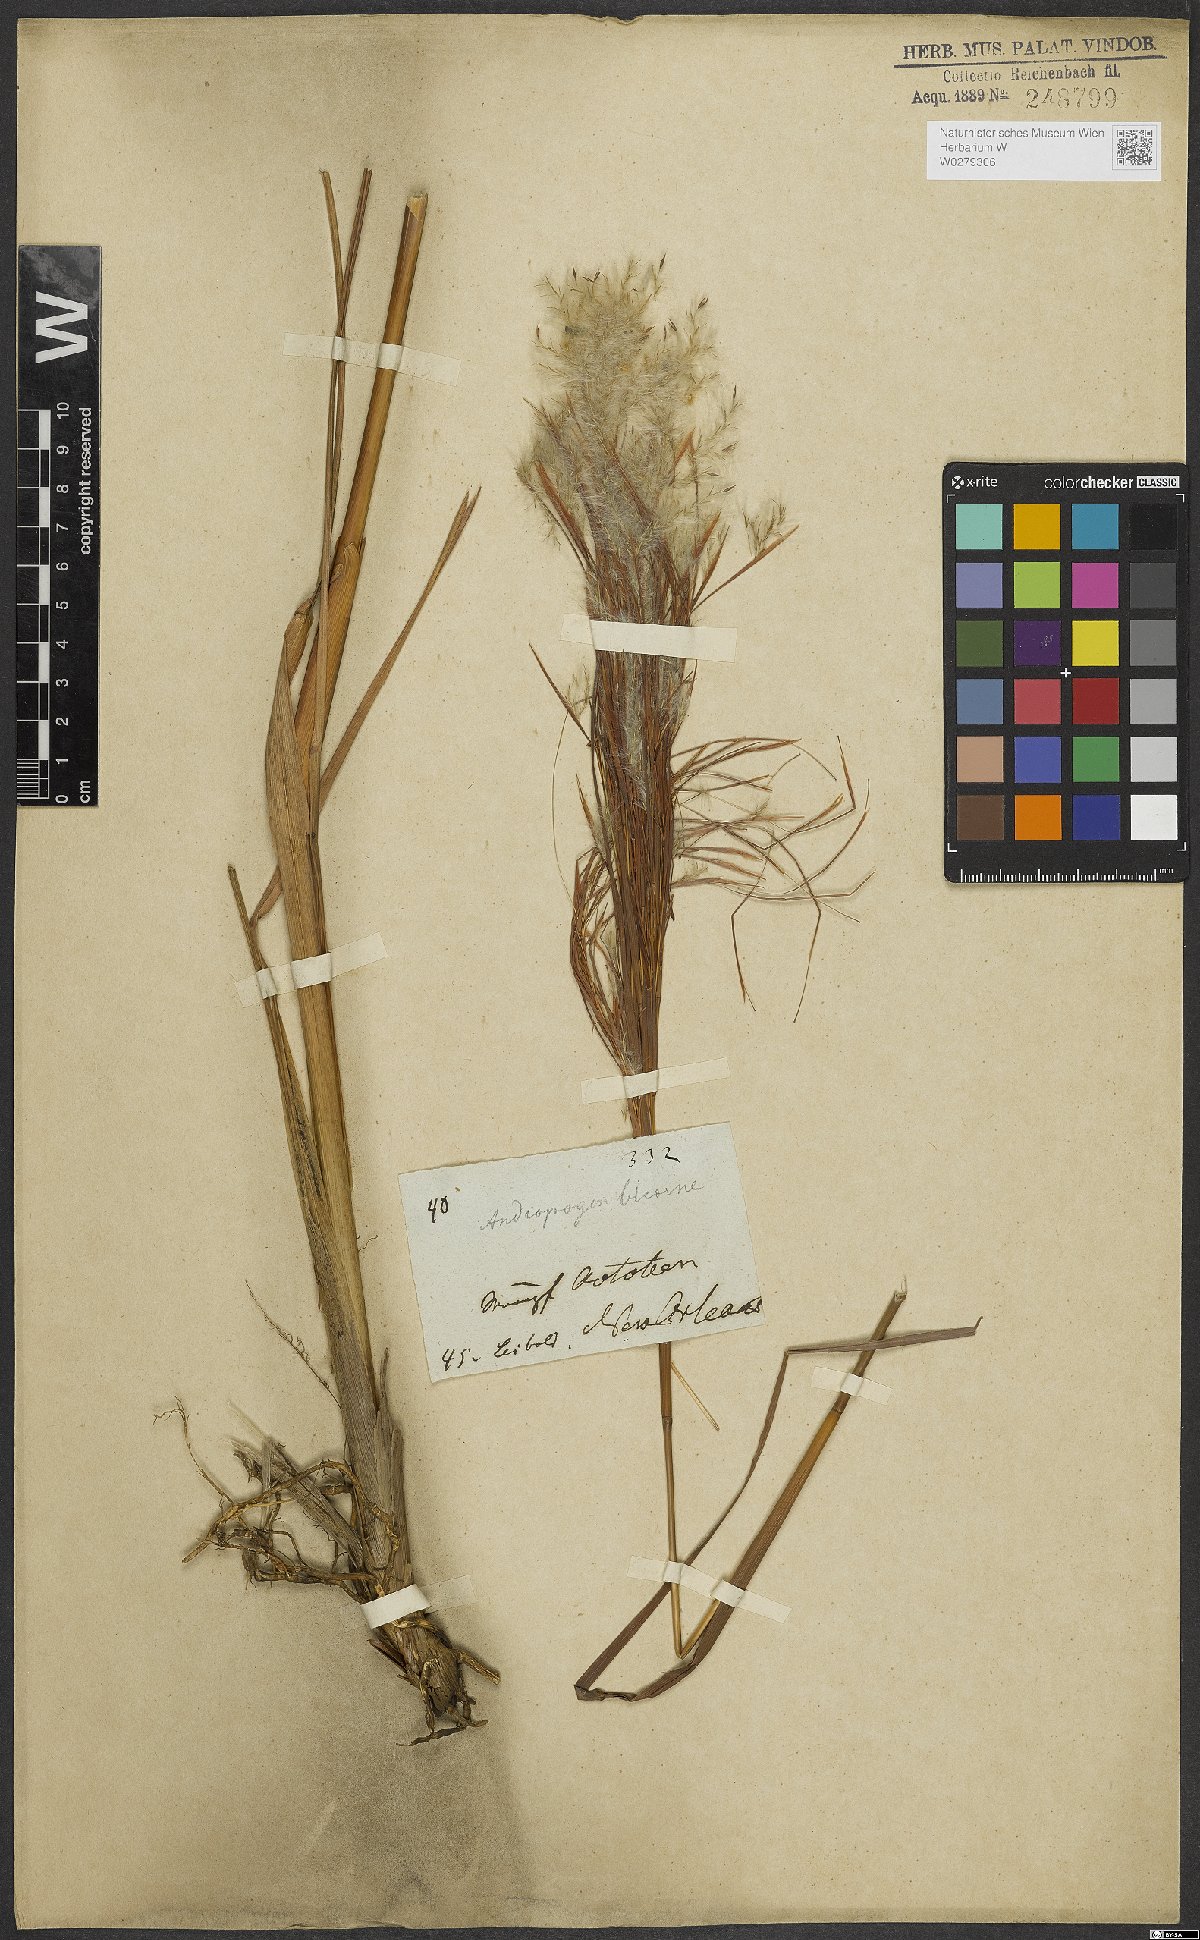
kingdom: Plantae
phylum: Tracheophyta
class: Liliopsida
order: Poales
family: Poaceae
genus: Andropogon
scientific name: Andropogon bicornis
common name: West indian foxtail grass
